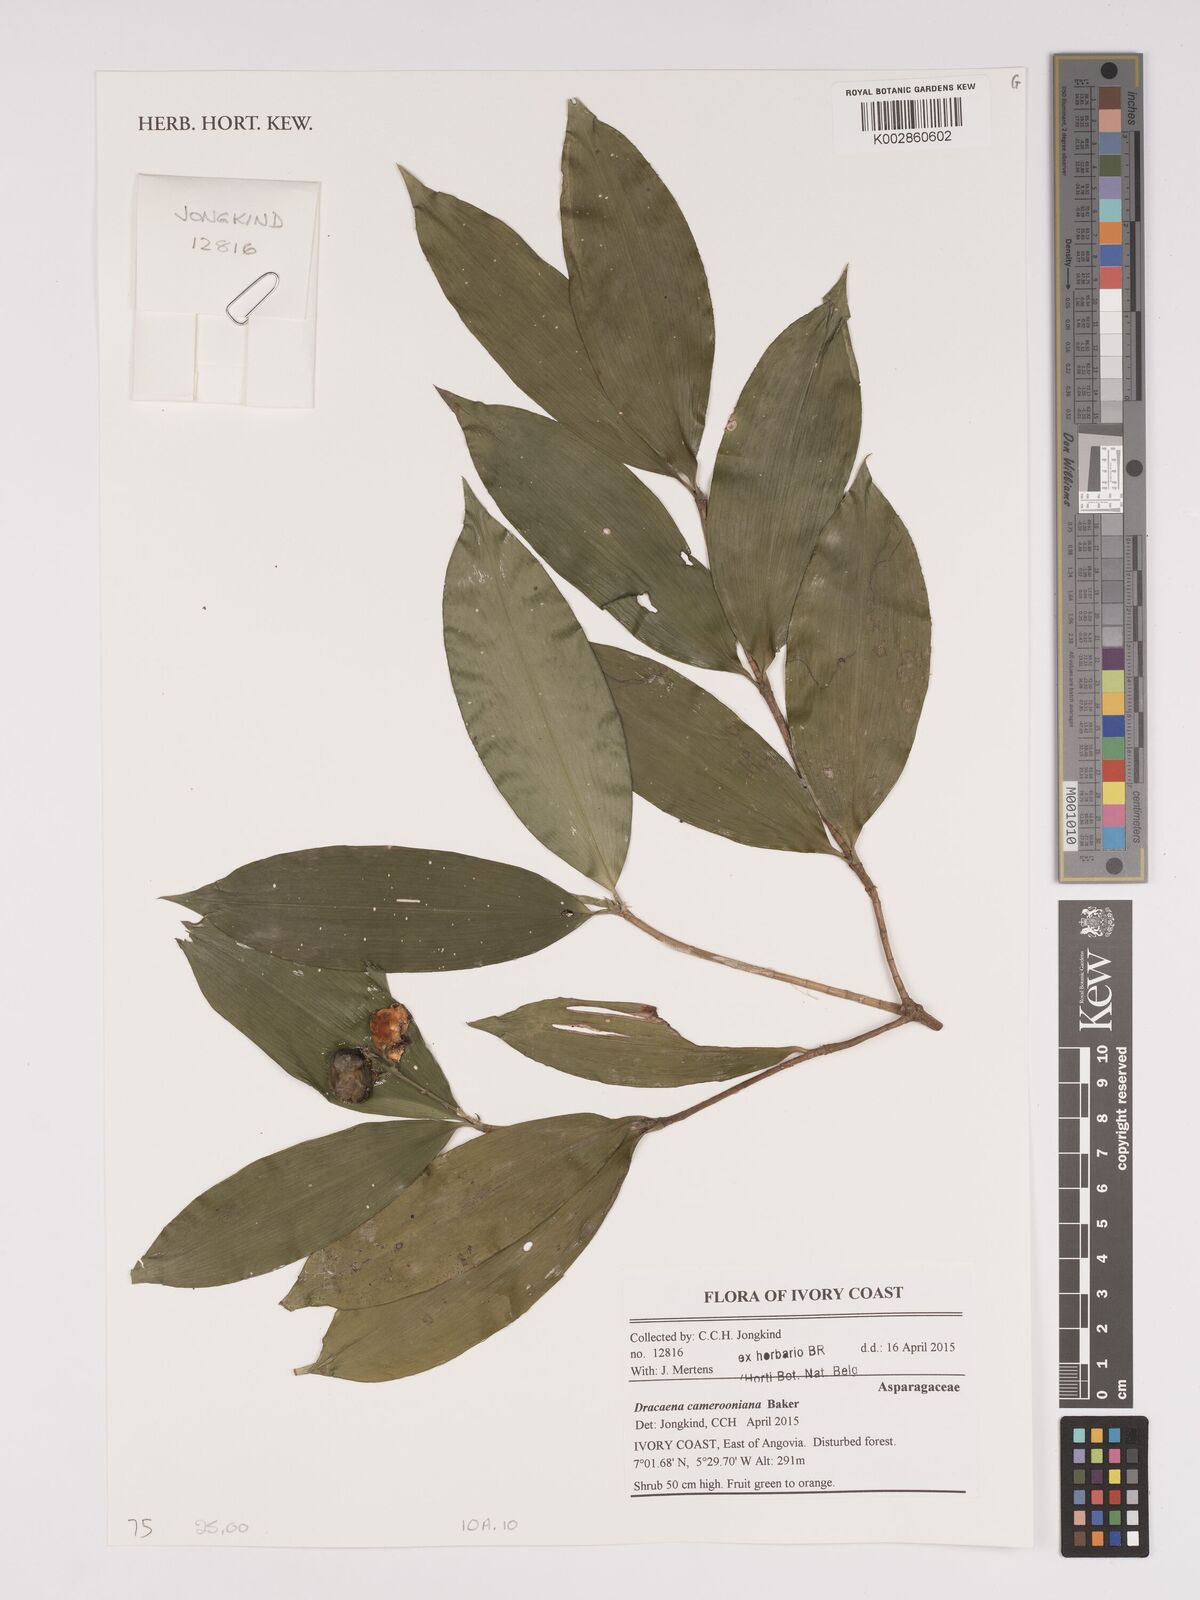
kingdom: Plantae
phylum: Tracheophyta
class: Liliopsida
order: Asparagales
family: Asparagaceae
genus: Dracaena
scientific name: Dracaena camerooniana
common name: Dragon tree
